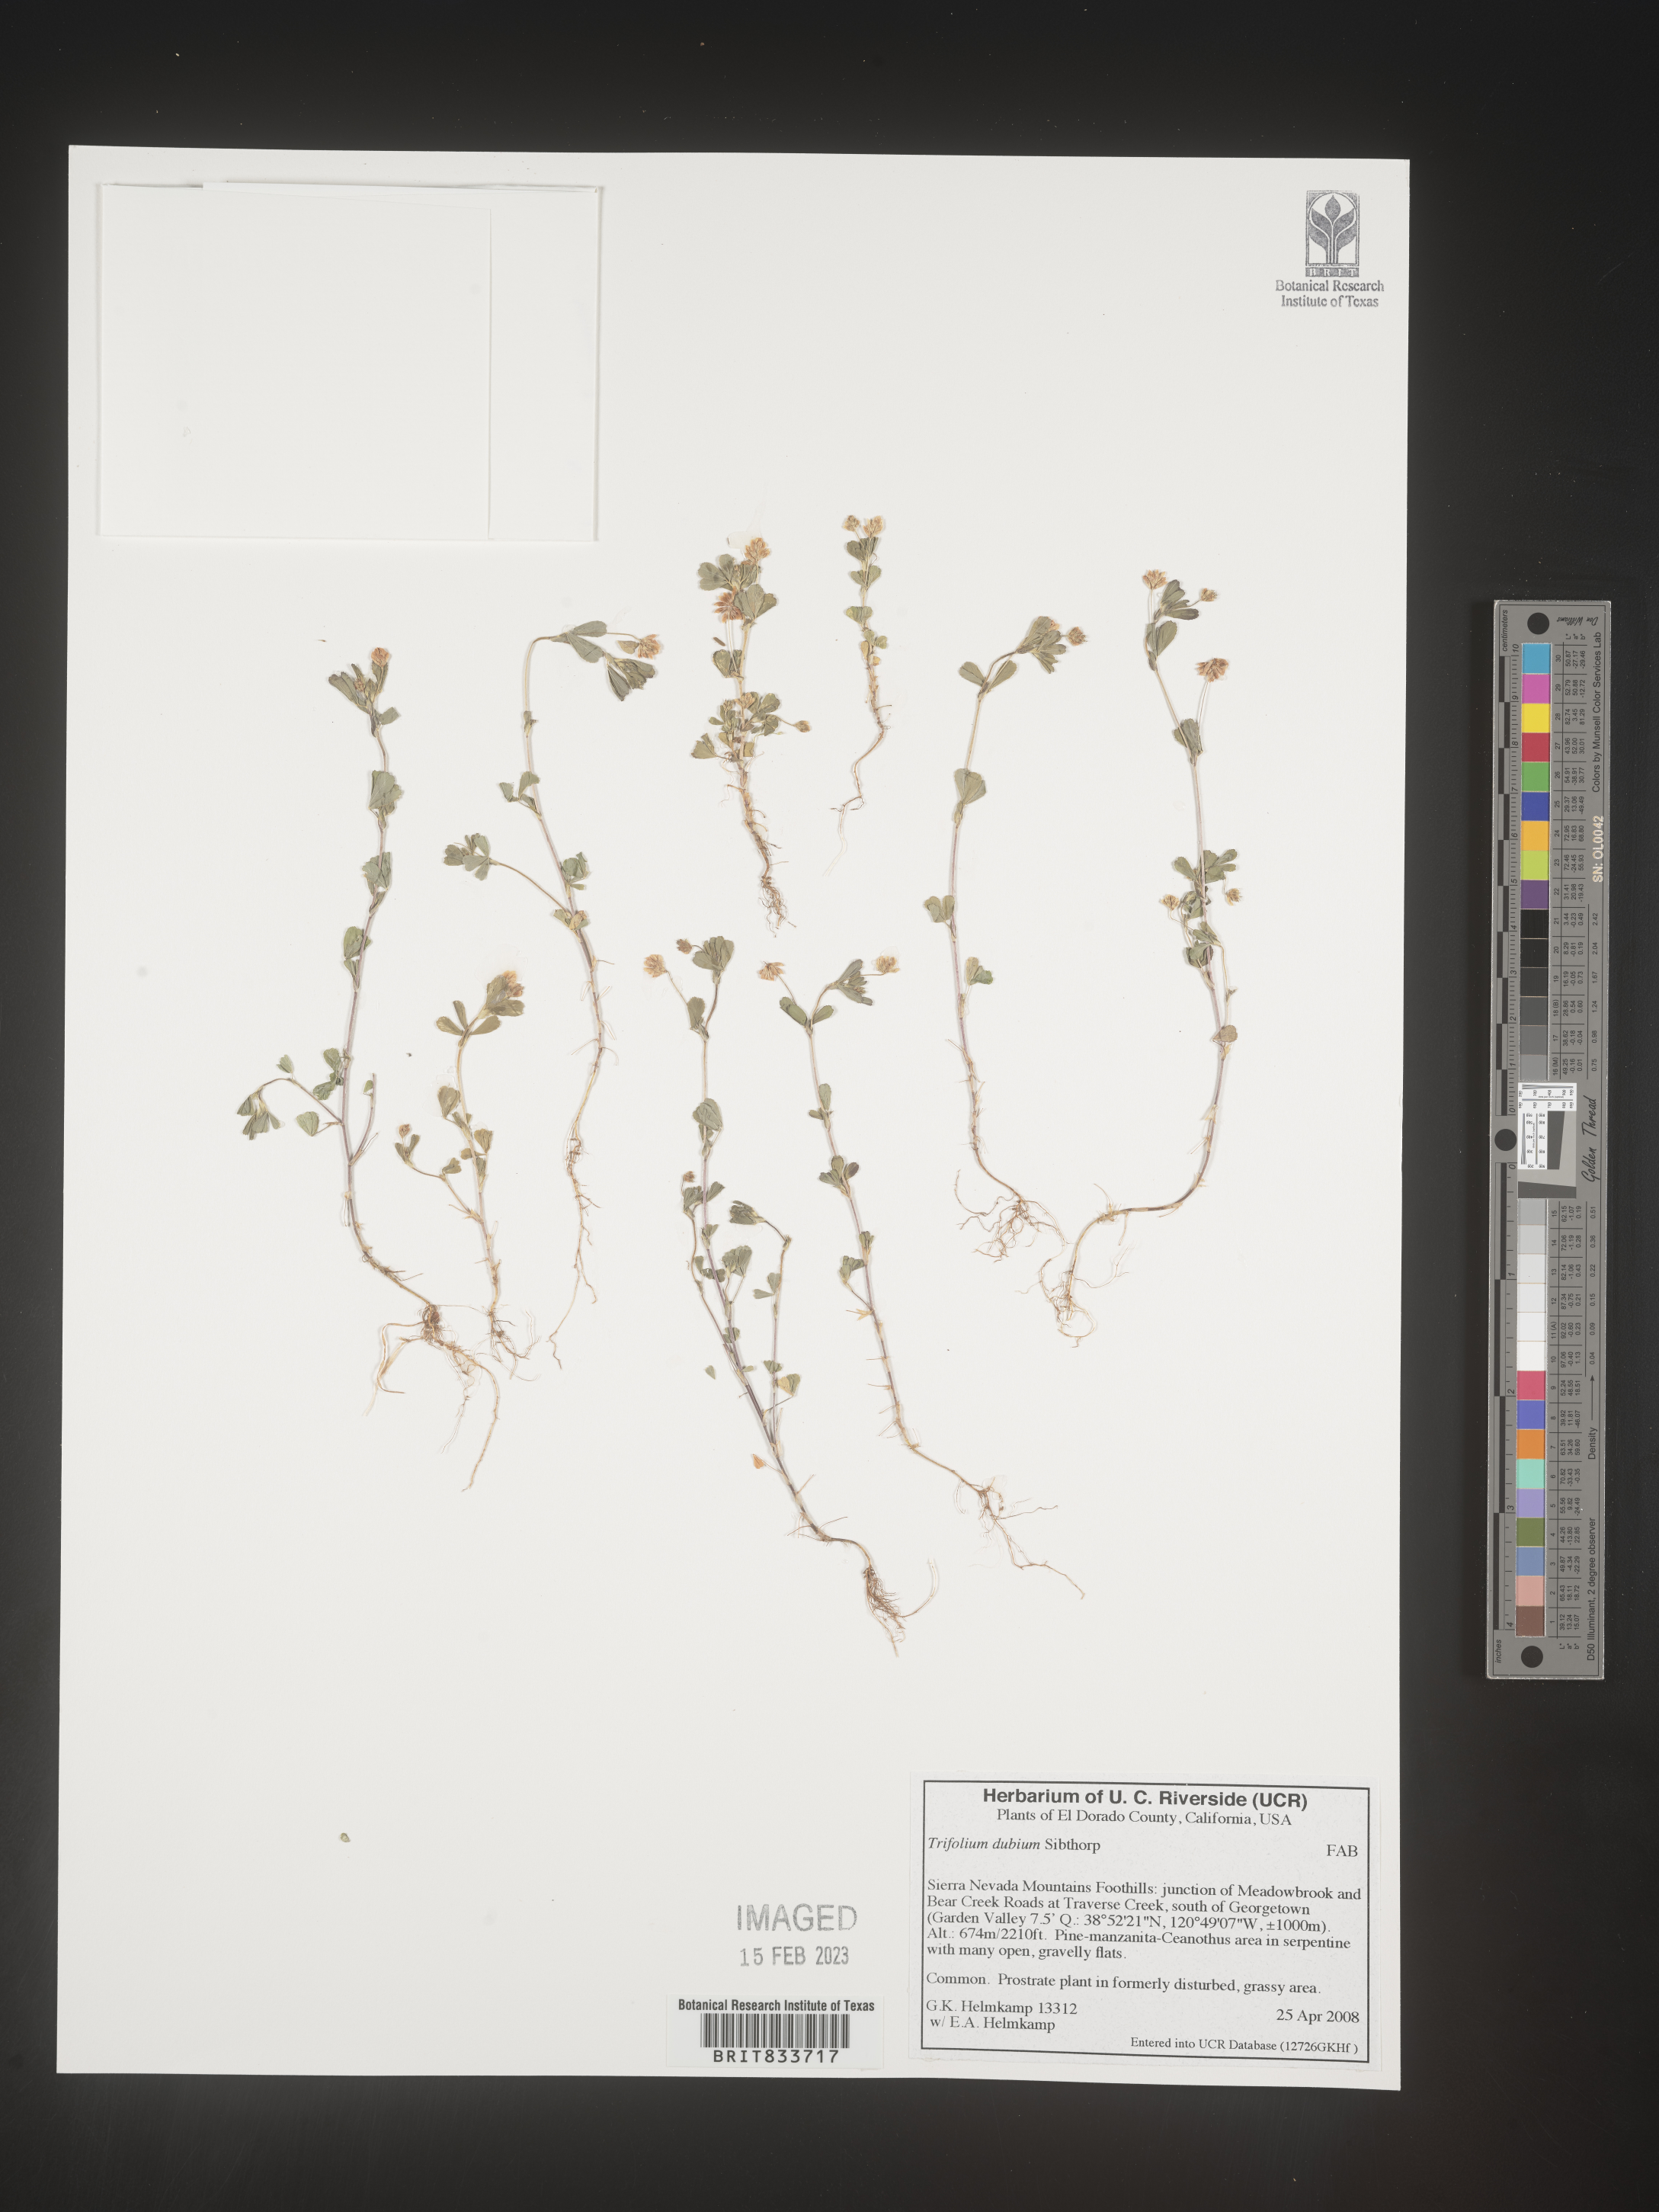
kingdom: Plantae
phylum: Tracheophyta
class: Magnoliopsida
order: Fabales
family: Fabaceae
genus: Trifolium
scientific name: Trifolium dubium
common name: Suckling clover
